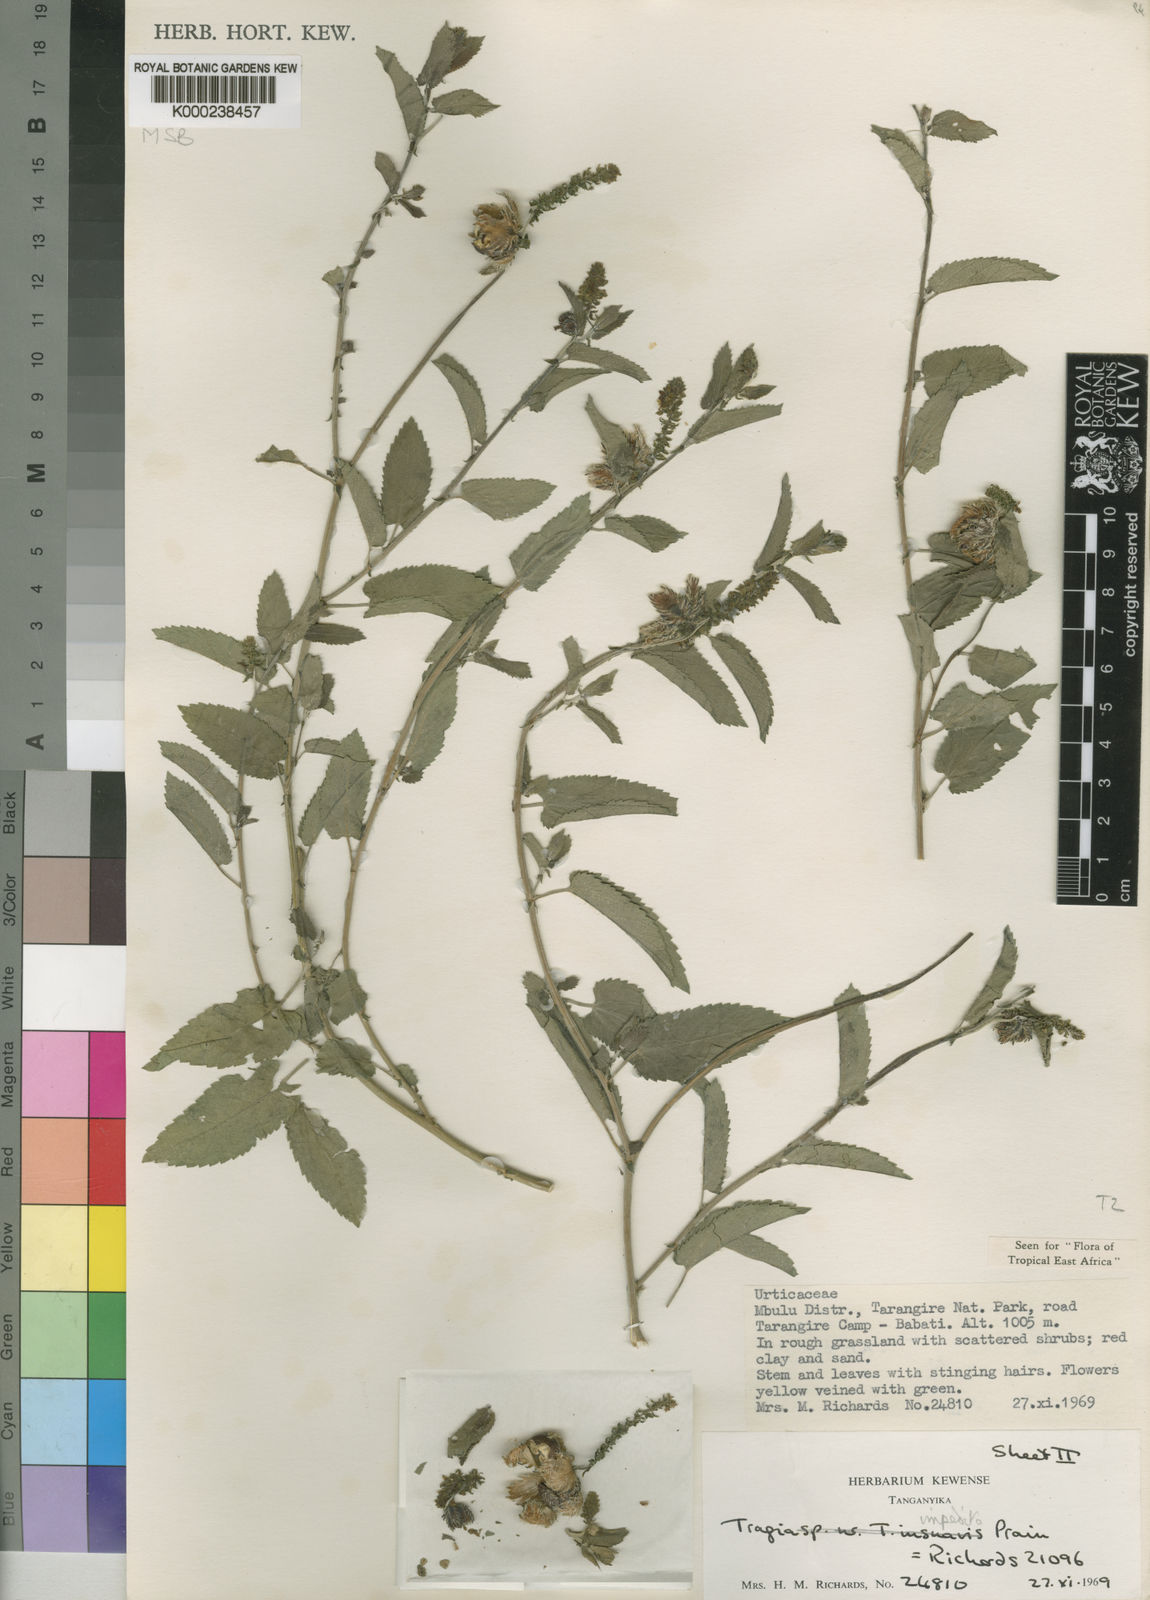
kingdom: Plantae
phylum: Tracheophyta
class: Magnoliopsida
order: Malpighiales
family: Euphorbiaceae
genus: Tragia
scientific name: Tragia impedita
